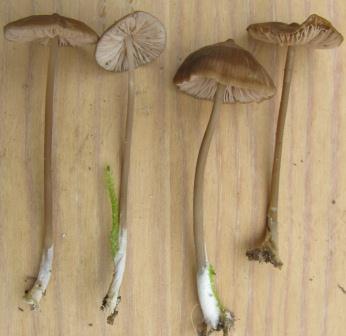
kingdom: Fungi
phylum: Basidiomycota
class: Agaricomycetes
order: Agaricales
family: Entolomataceae
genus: Entoloma
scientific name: Entoloma infula
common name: hvidbladet rødblad
